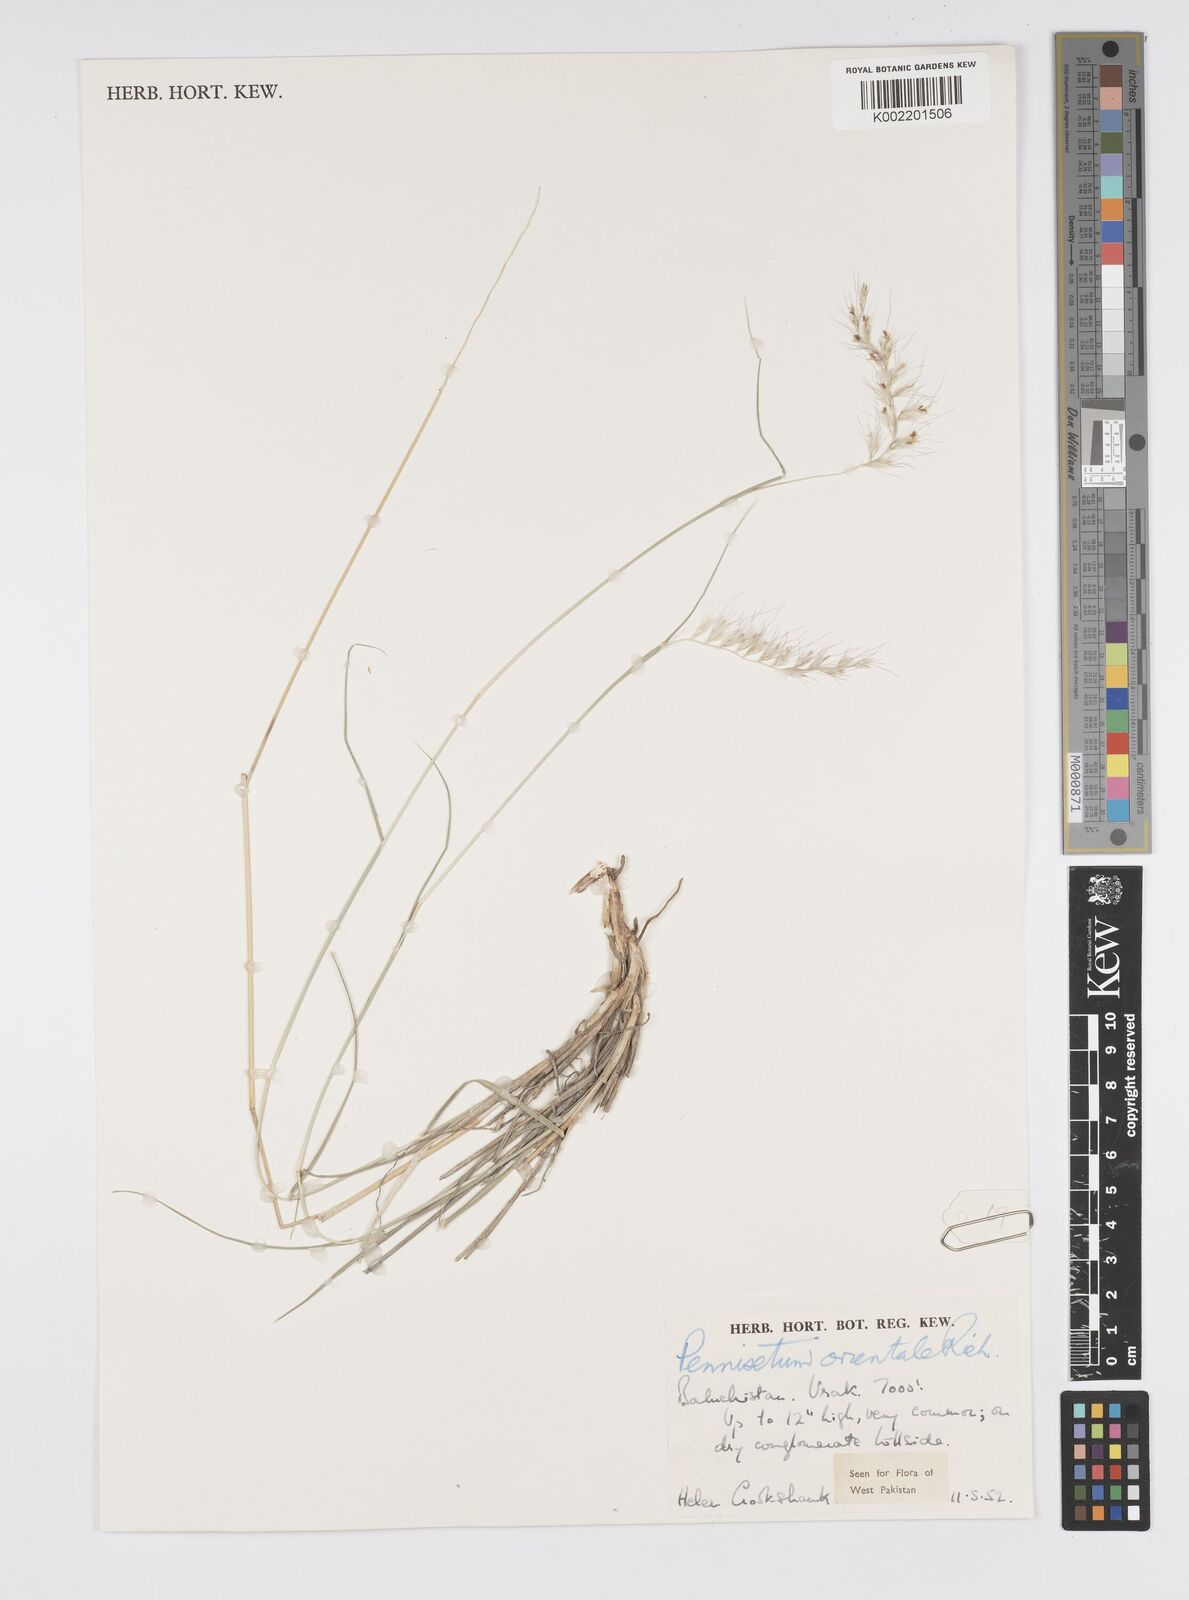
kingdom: Plantae
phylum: Tracheophyta
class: Liliopsida
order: Poales
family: Poaceae
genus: Cenchrus
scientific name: Cenchrus orientalis
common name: Oriental fountain grass
